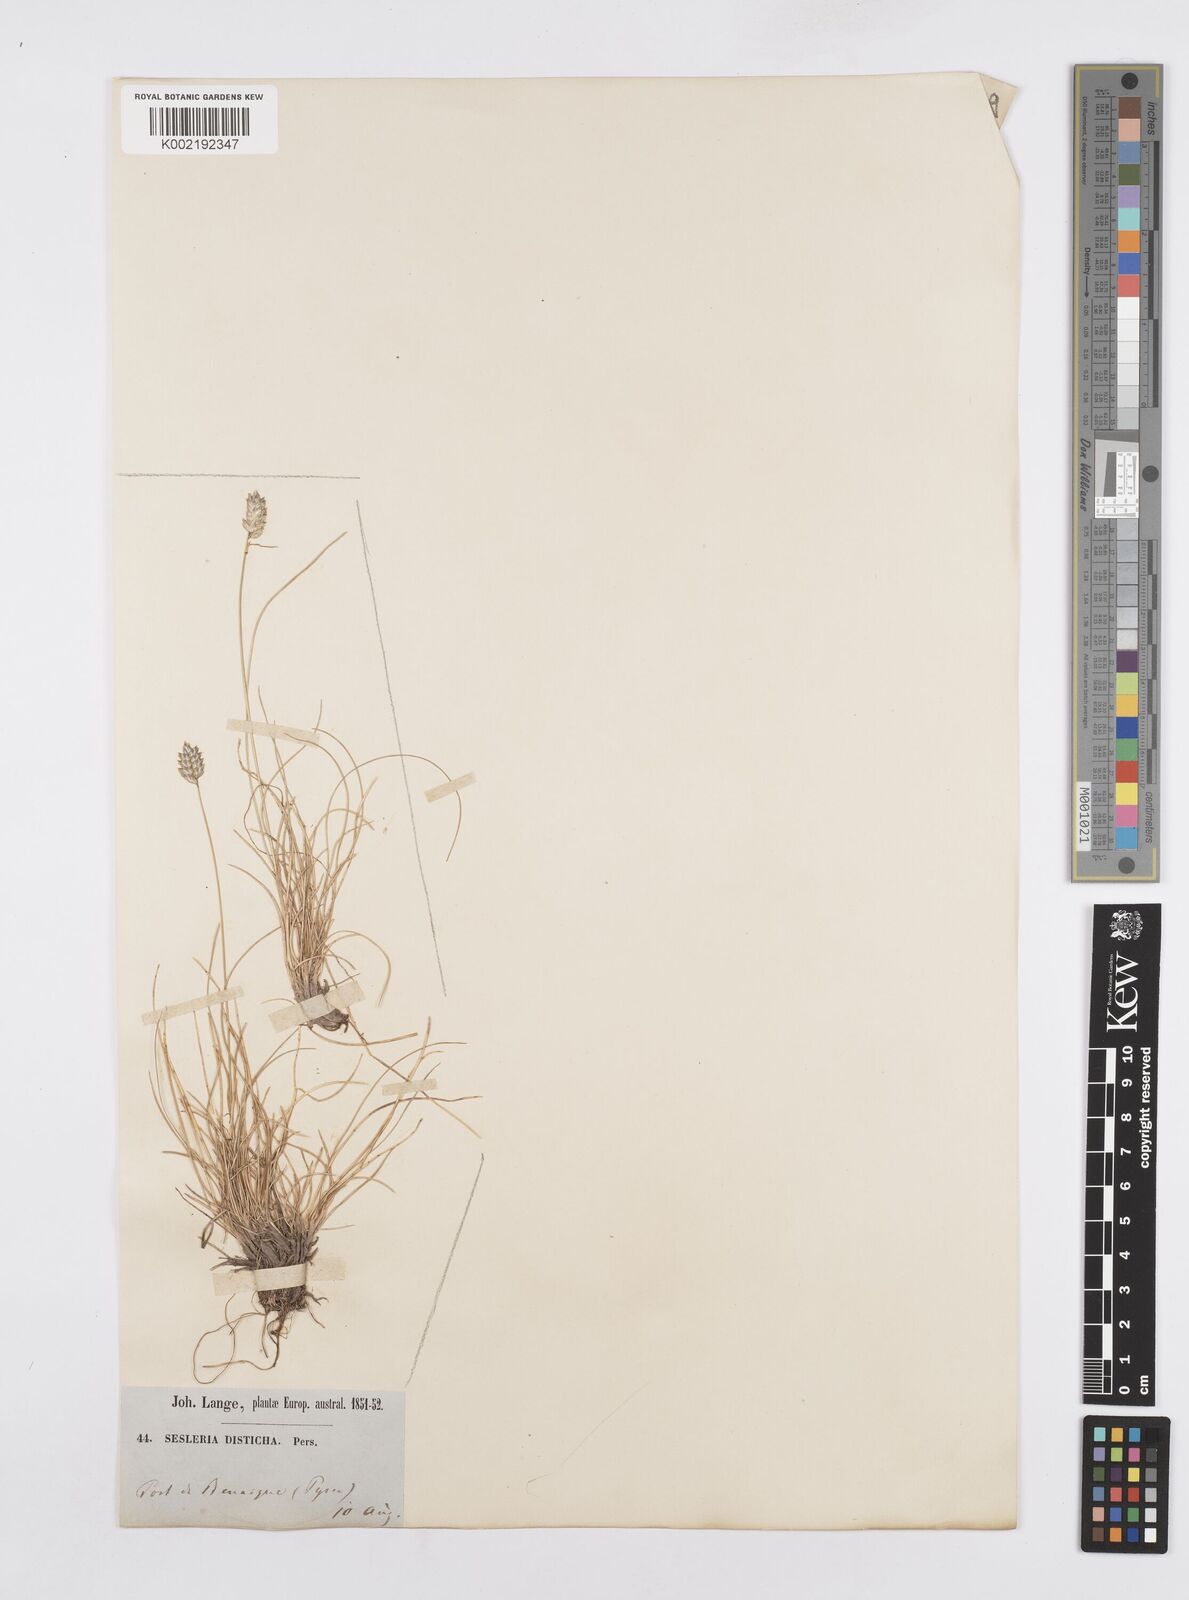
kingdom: Plantae
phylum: Tracheophyta
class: Liliopsida
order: Poales
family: Poaceae
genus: Oreochloa
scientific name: Oreochloa elegans
